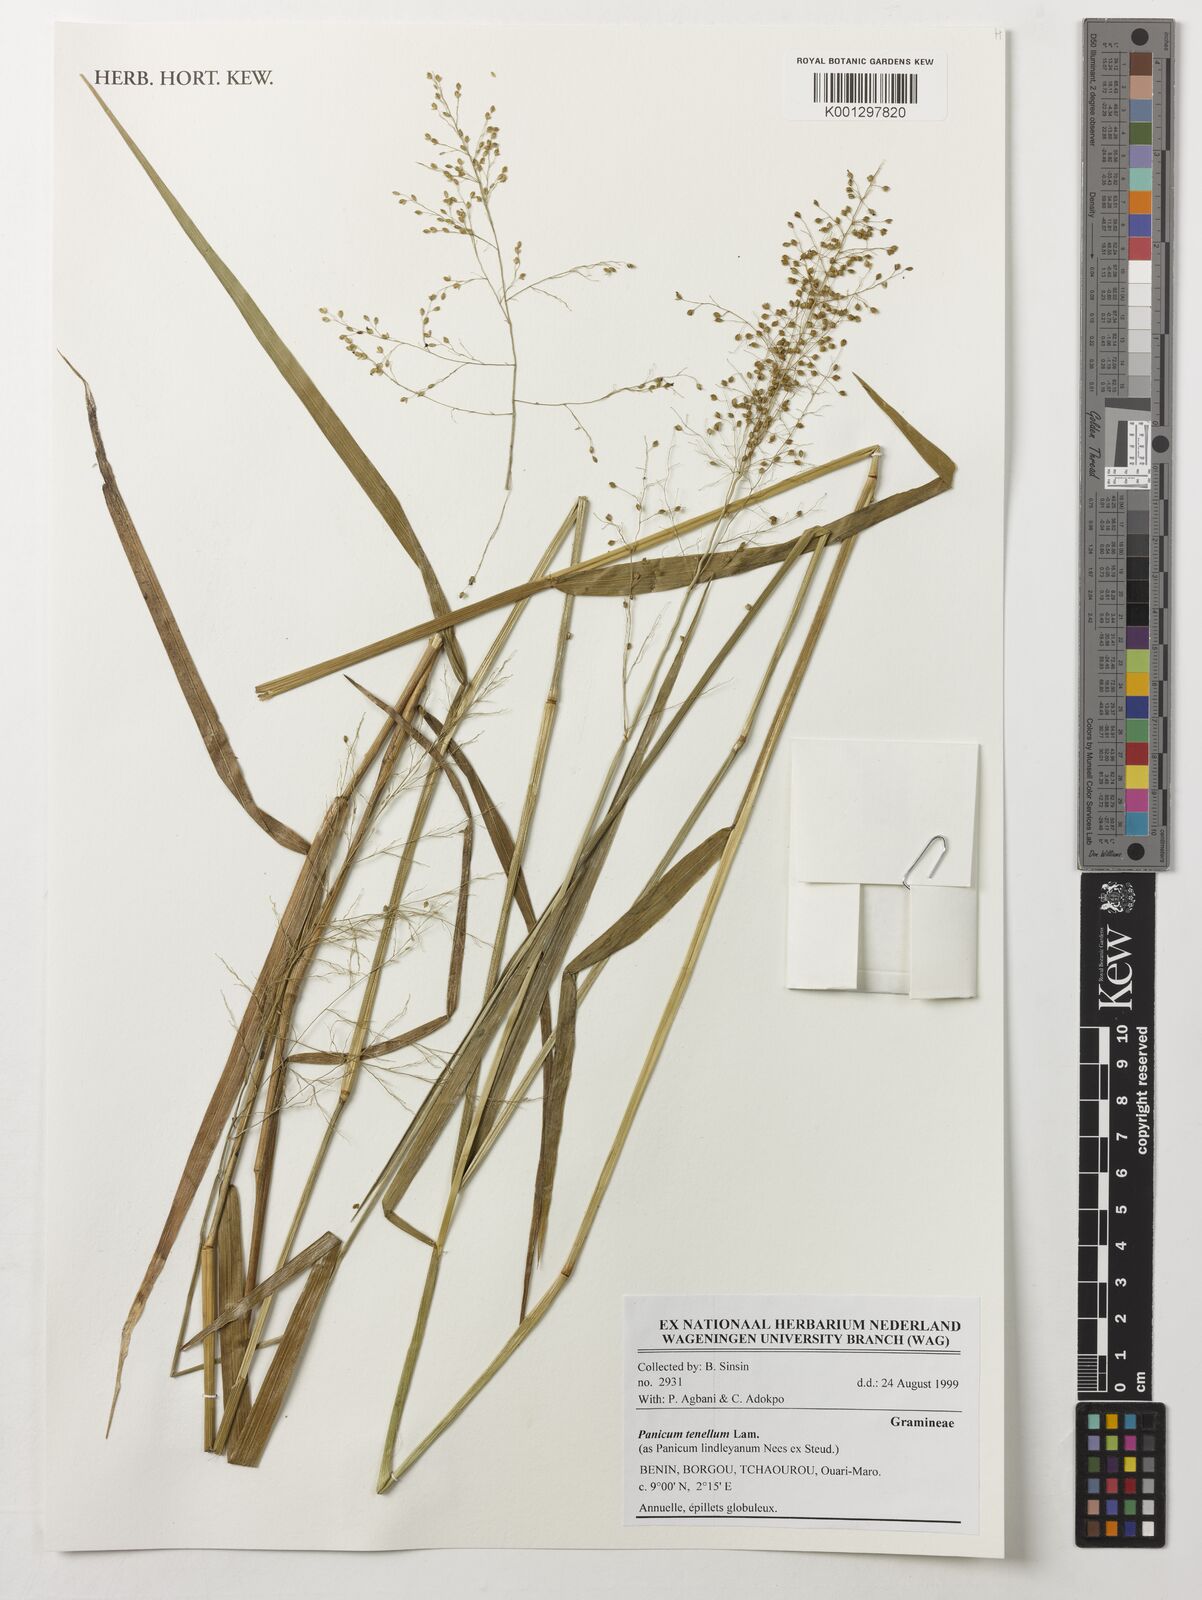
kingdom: Plantae
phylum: Tracheophyta
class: Liliopsida
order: Poales
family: Poaceae
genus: Trichanthecium
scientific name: Trichanthecium tenellum
